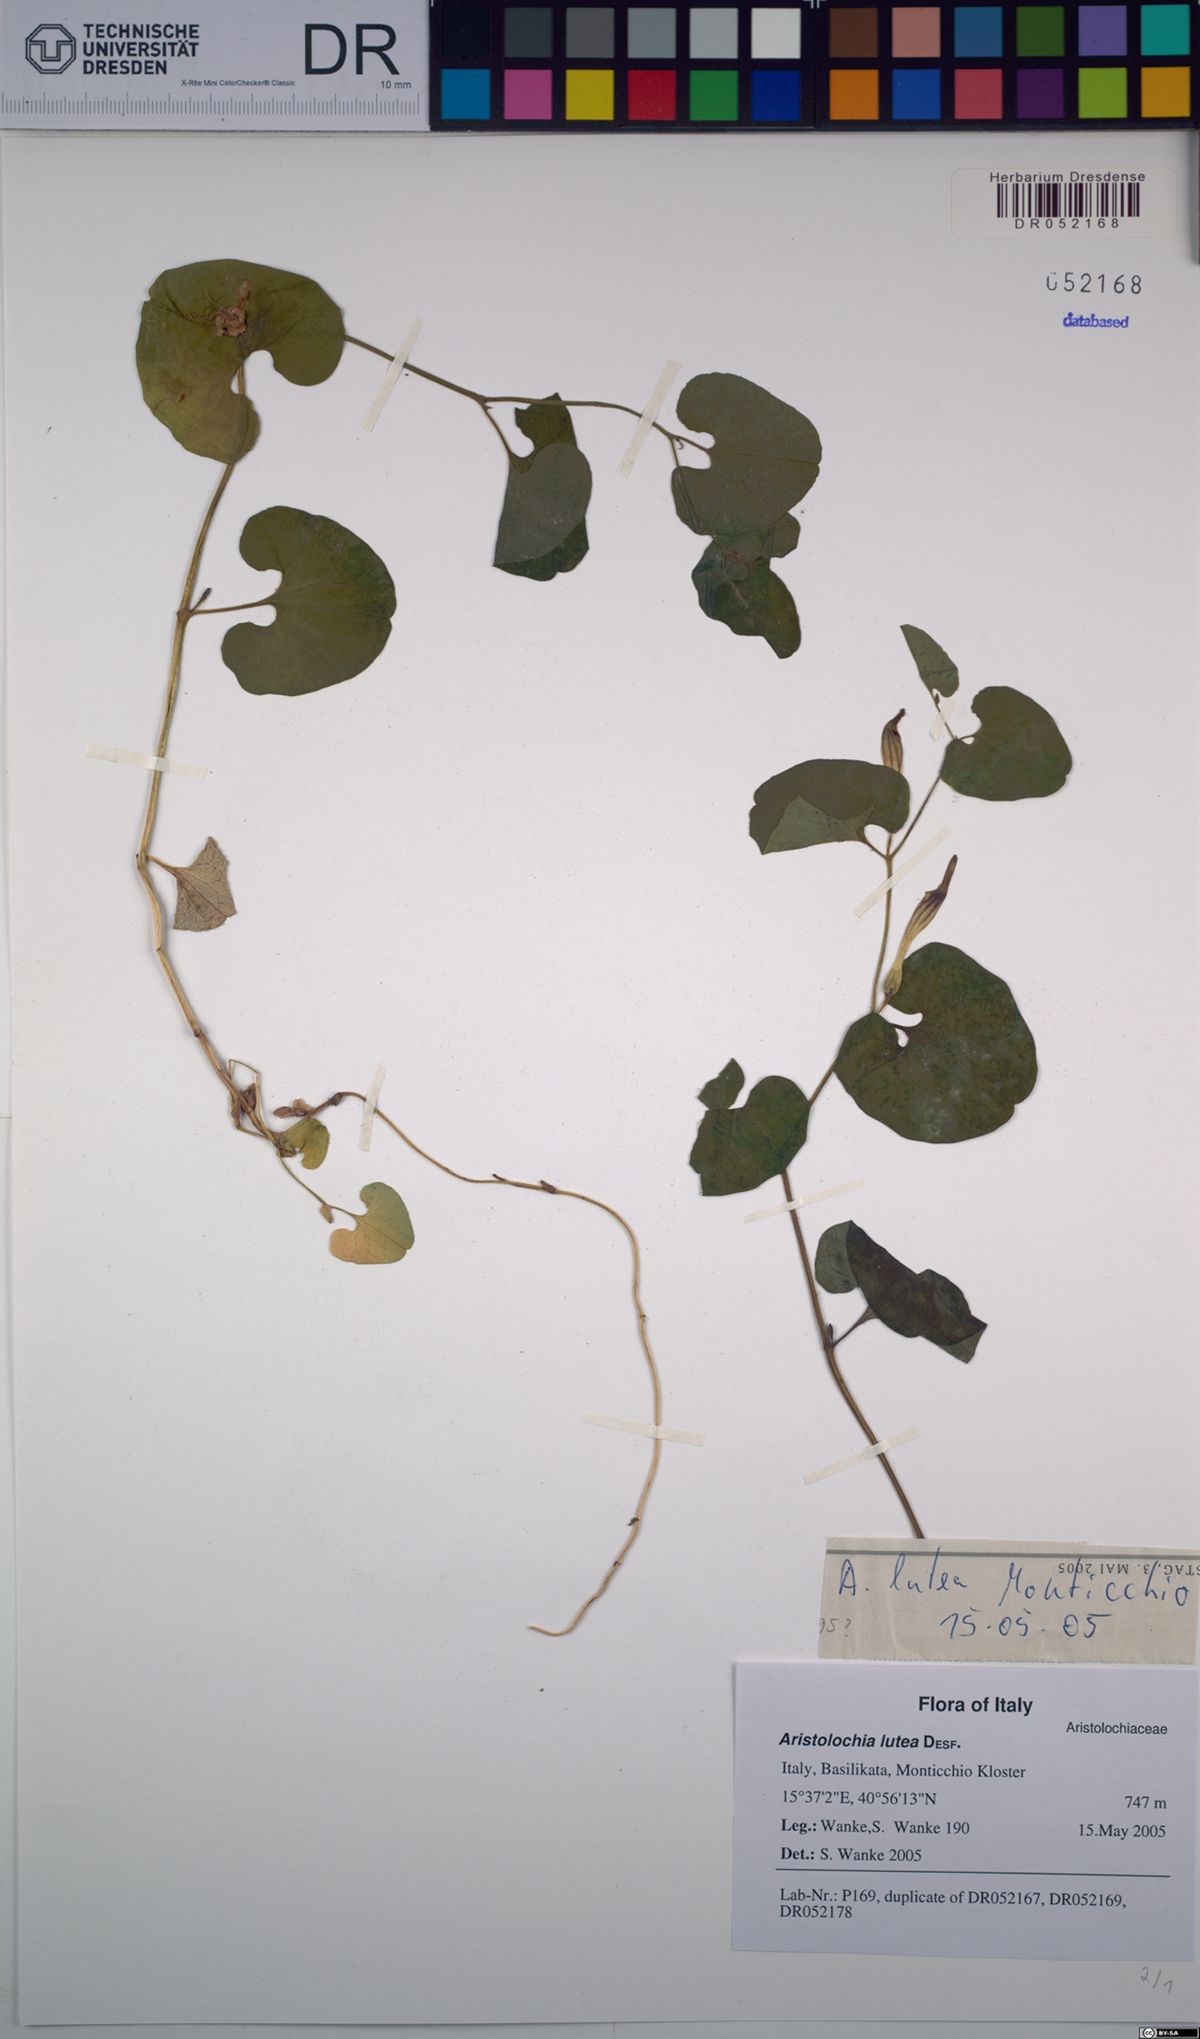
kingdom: Plantae
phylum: Tracheophyta
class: Magnoliopsida
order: Piperales
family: Aristolochiaceae
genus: Aristolochia
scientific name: Aristolochia lutea
